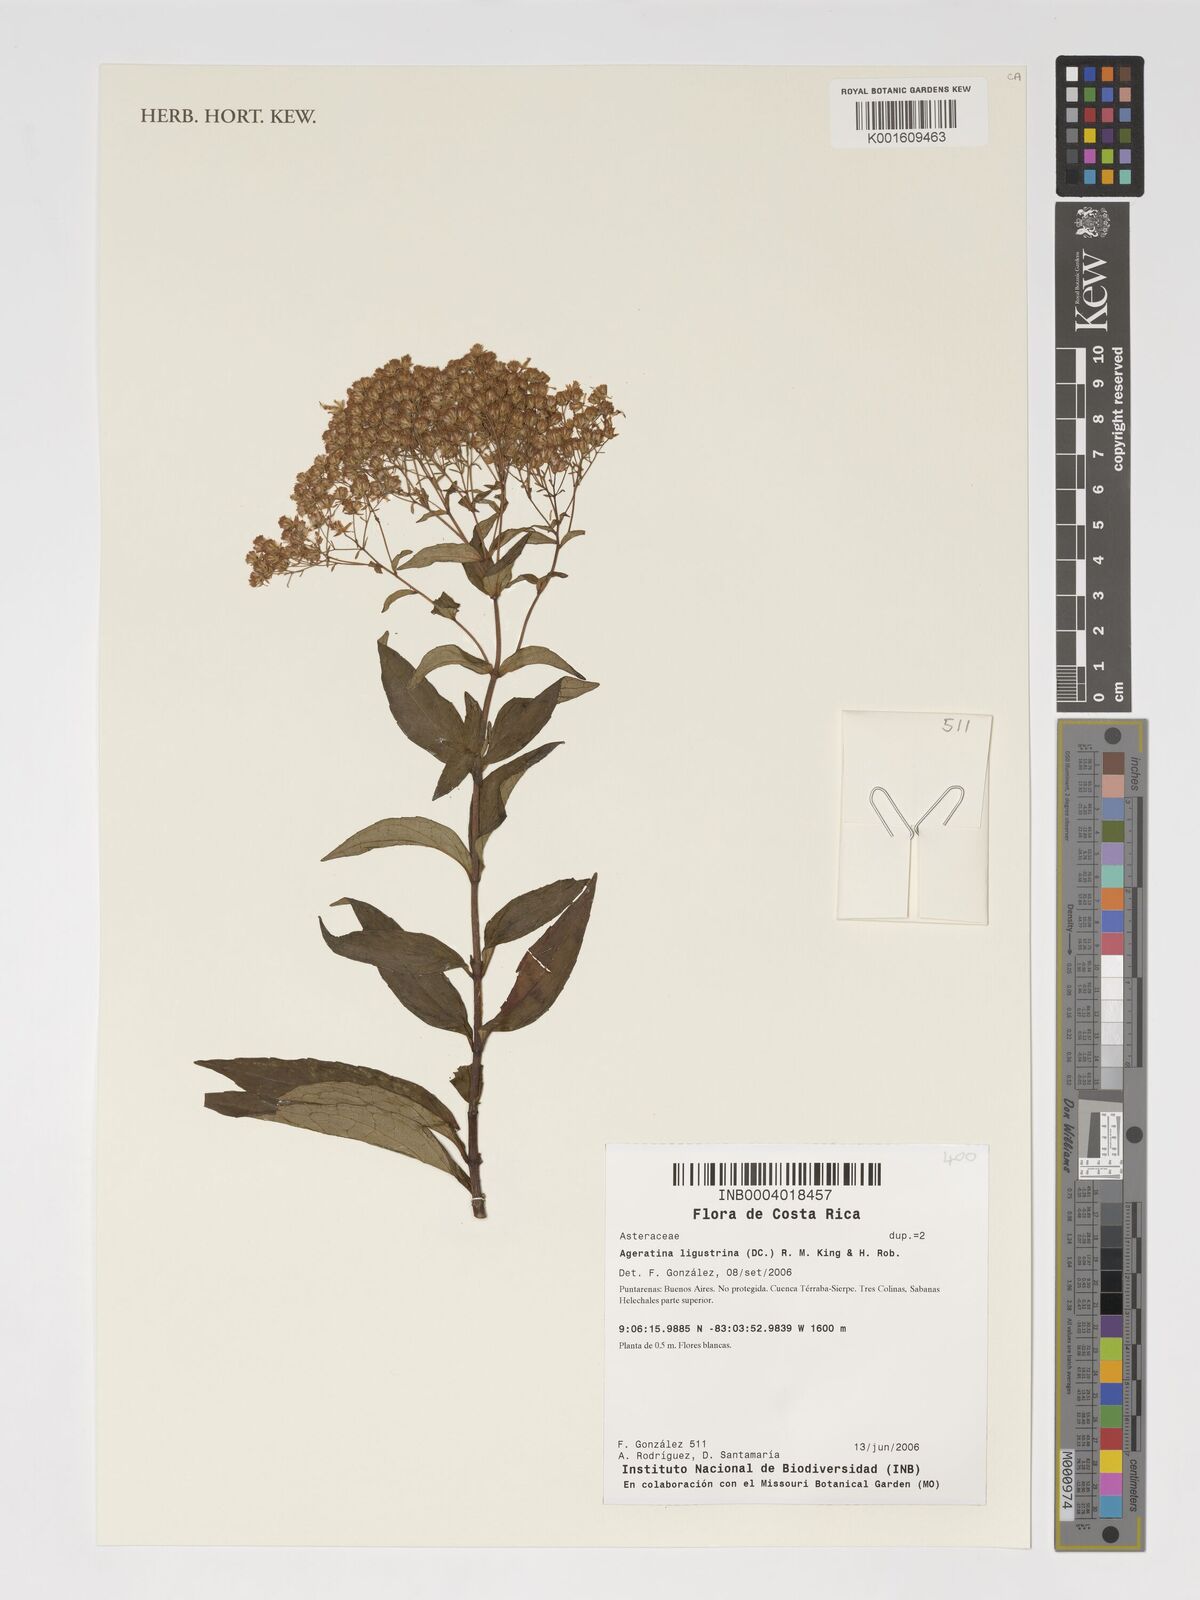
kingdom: Plantae
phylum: Tracheophyta
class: Magnoliopsida
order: Asterales
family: Asteraceae
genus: Ageratina
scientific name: Ageratina ligustrina
